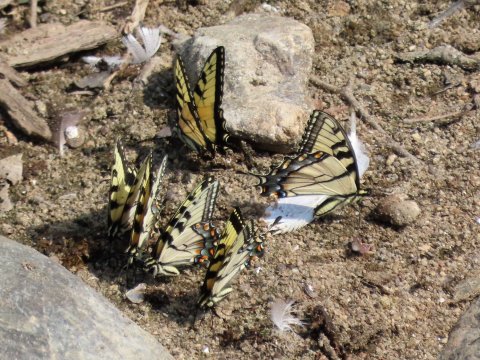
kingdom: Animalia
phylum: Arthropoda
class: Insecta
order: Lepidoptera
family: Papilionidae
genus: Pterourus
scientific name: Pterourus glaucus
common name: Eastern Tiger Swallowtail
